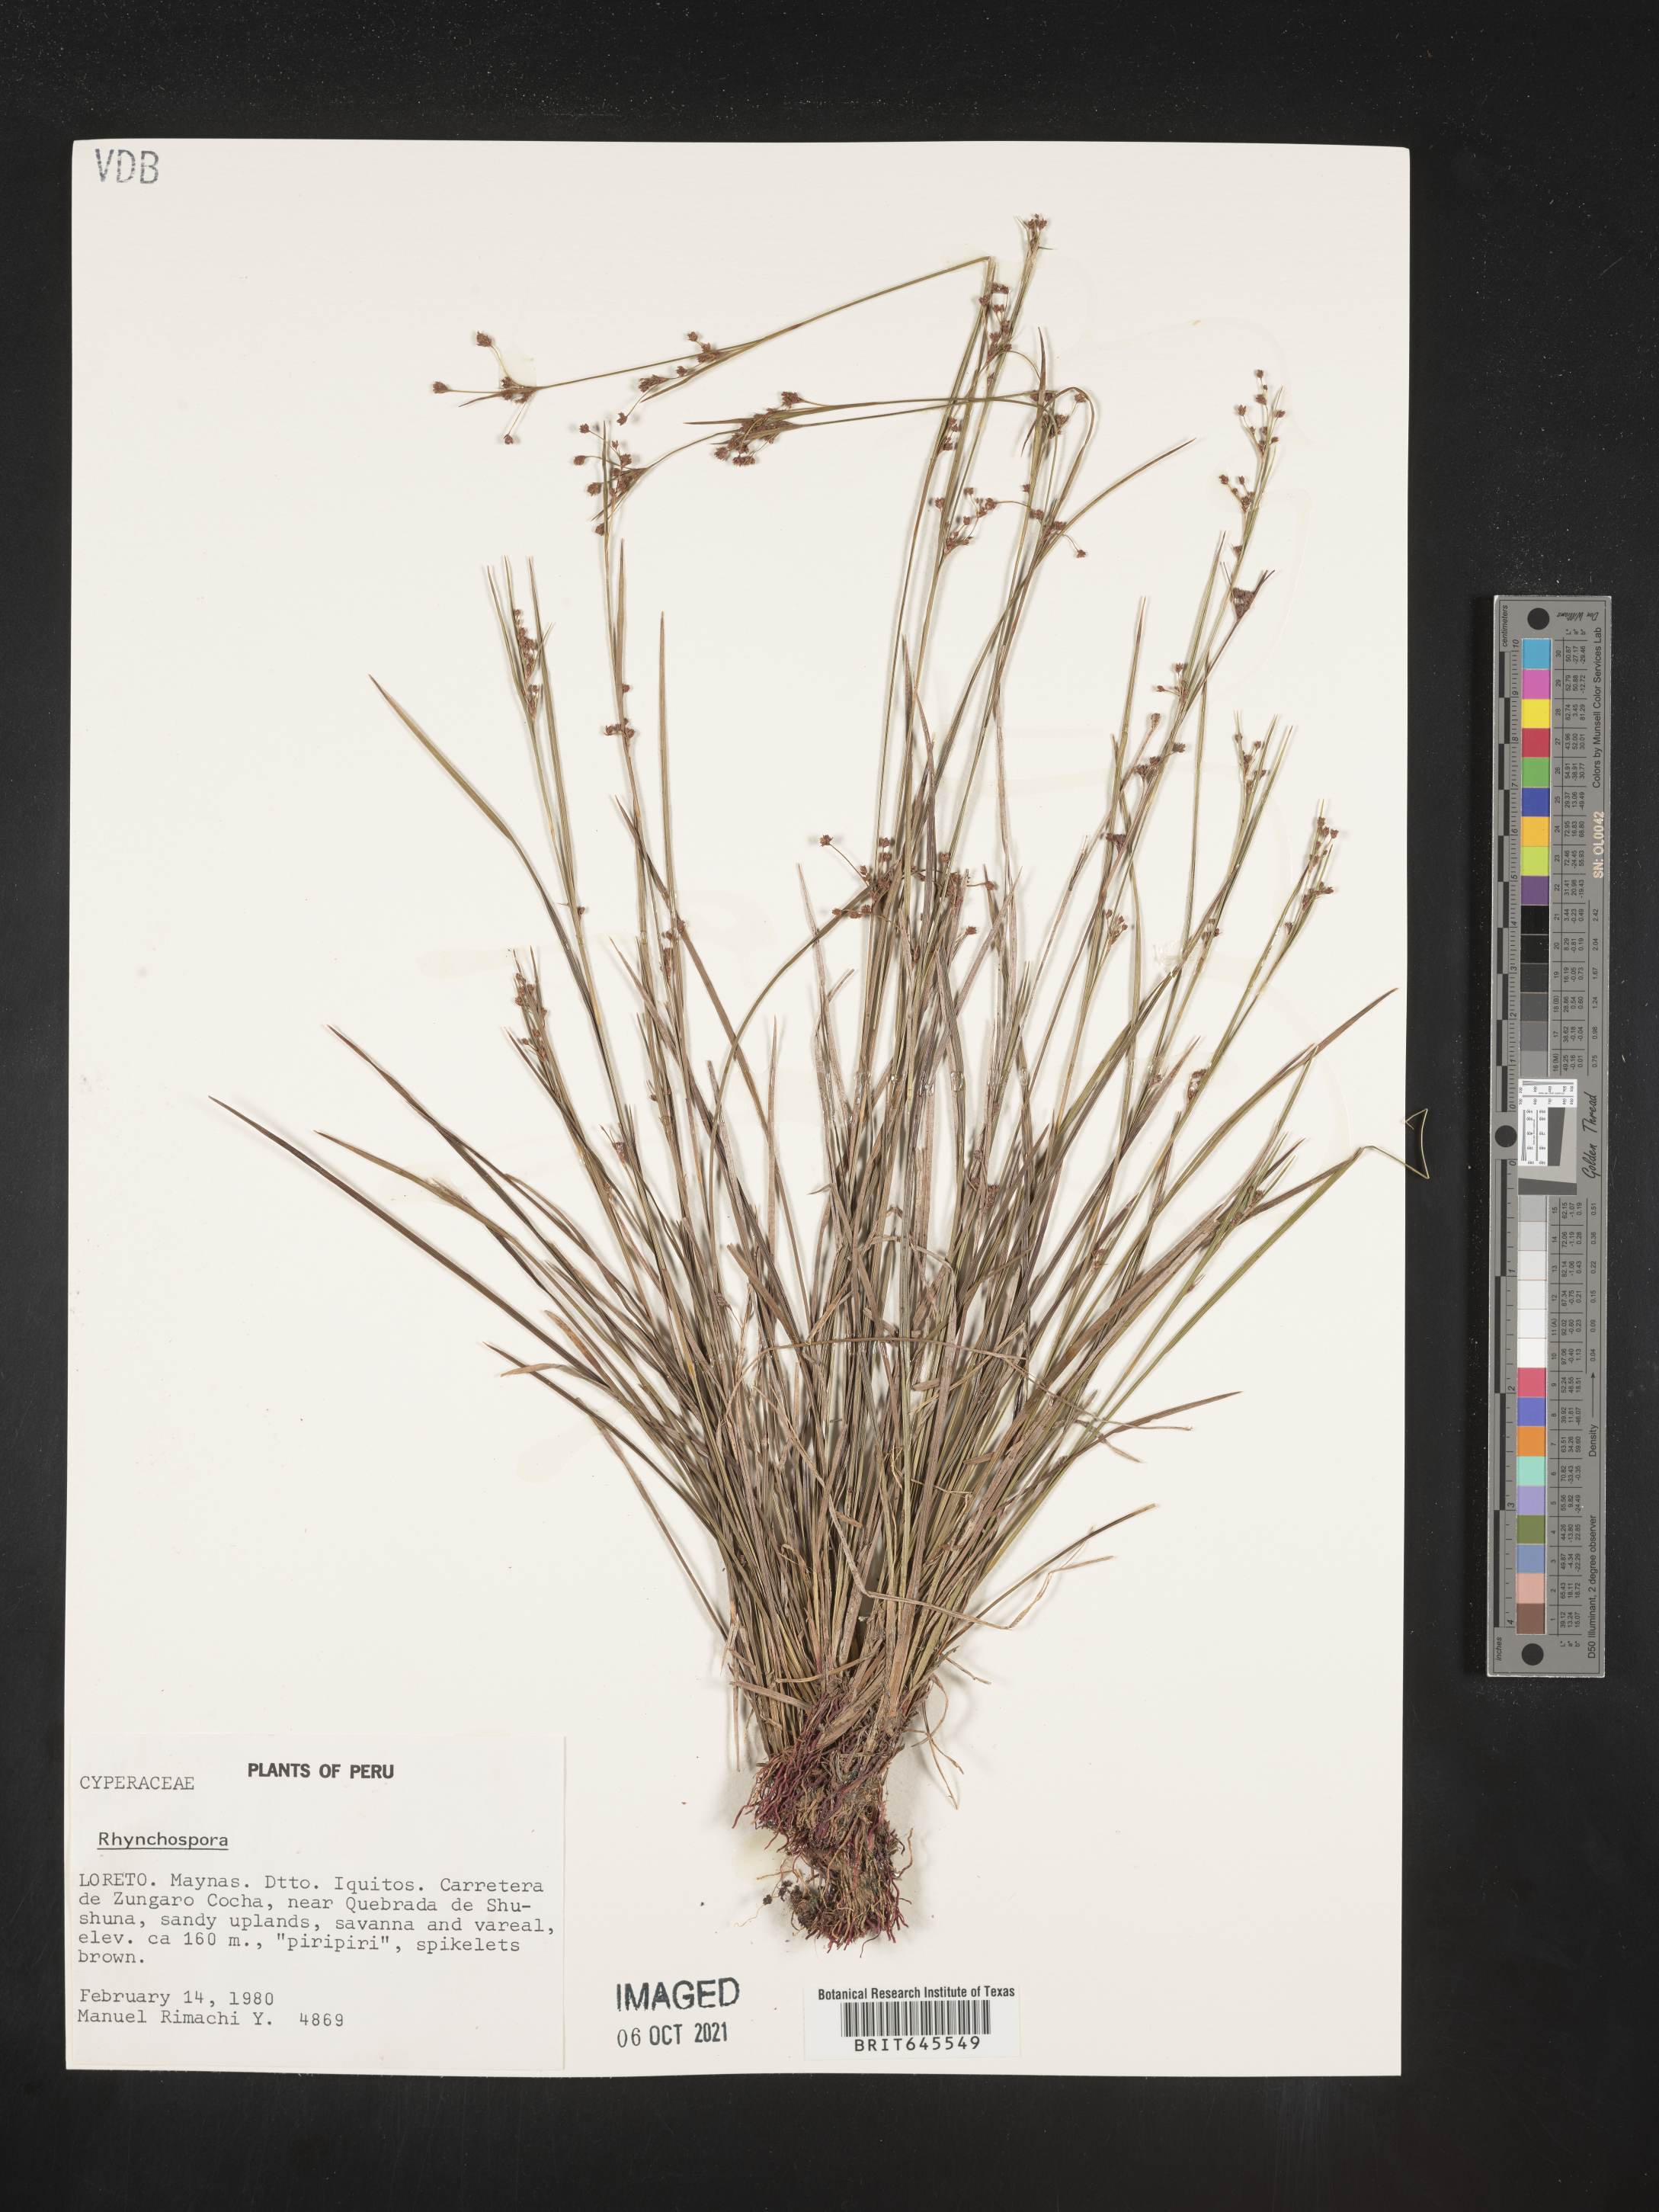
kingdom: Plantae
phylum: Tracheophyta
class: Liliopsida
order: Poales
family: Cyperaceae
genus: Rhynchospora
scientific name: Rhynchospora
